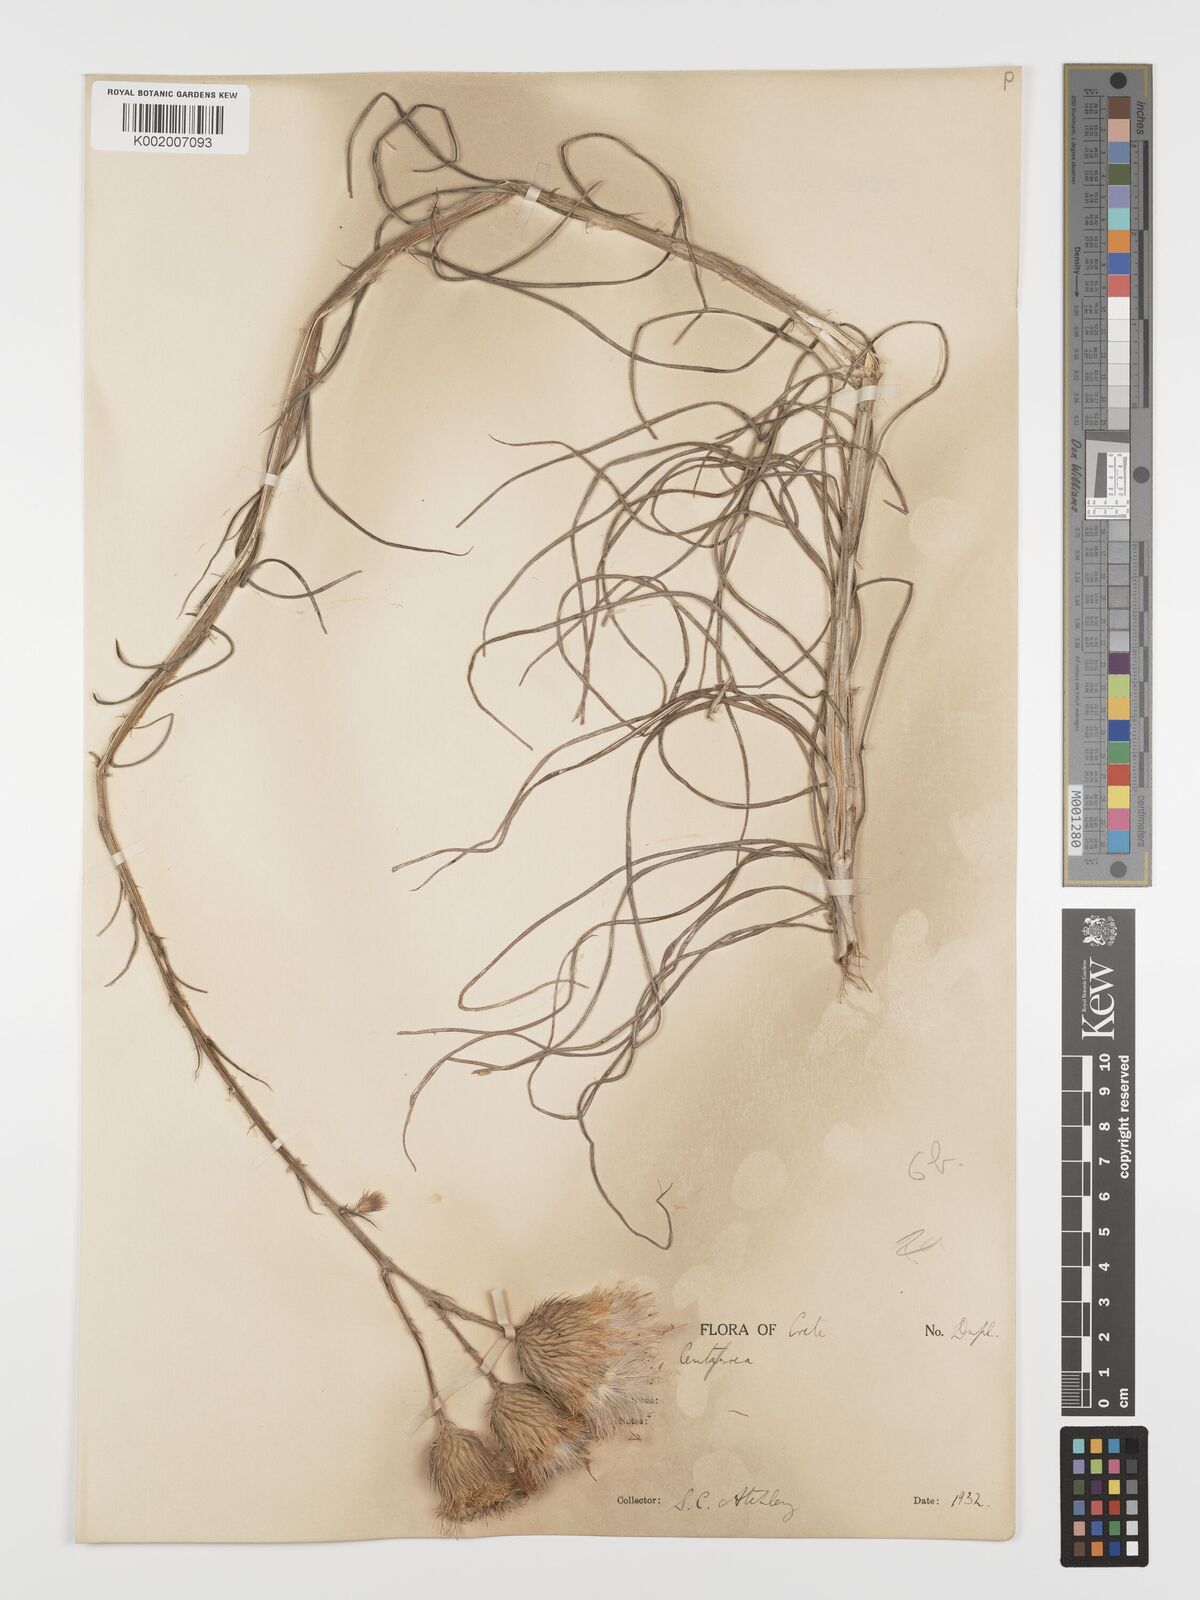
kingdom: Plantae
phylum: Tracheophyta
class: Magnoliopsida
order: Asterales
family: Asteraceae
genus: Ptilostemon
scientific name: Ptilostemon gnaphaloides
